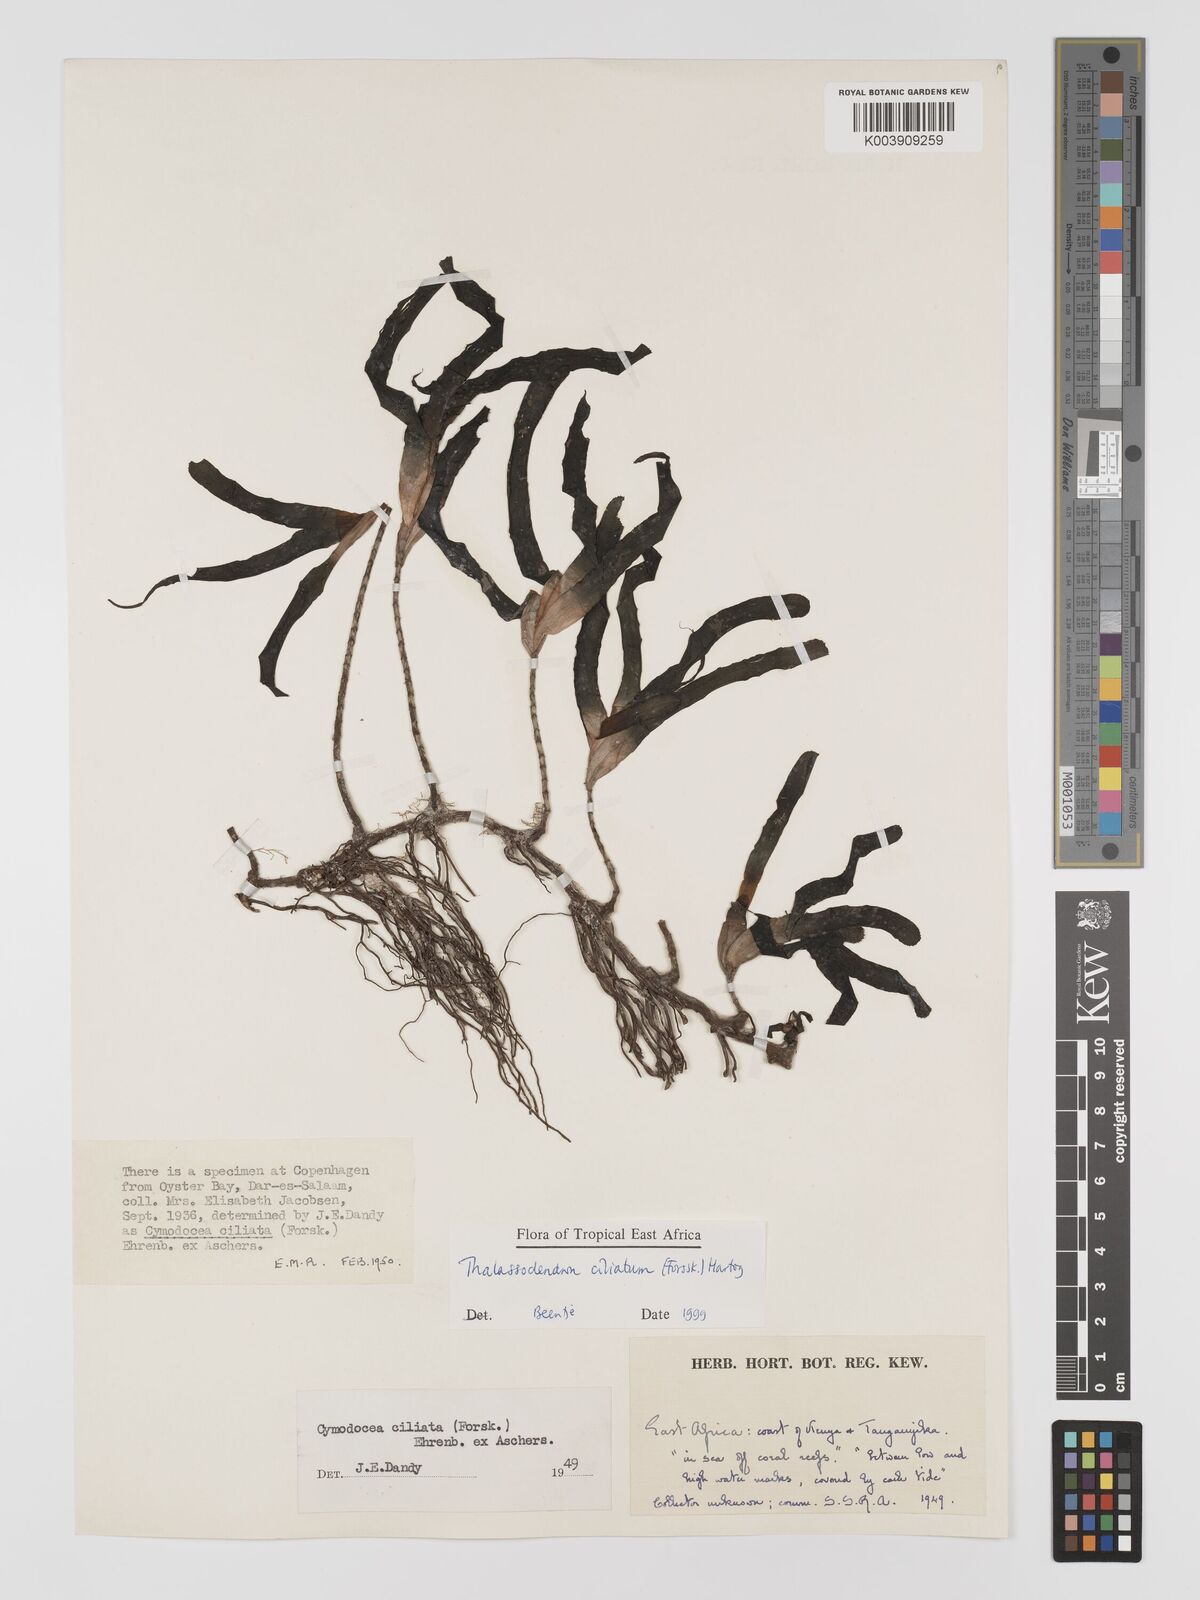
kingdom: Plantae
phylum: Tracheophyta
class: Liliopsida
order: Alismatales
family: Cymodoceaceae
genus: Thalassodendron
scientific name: Thalassodendron ciliatum
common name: Species code: tc
